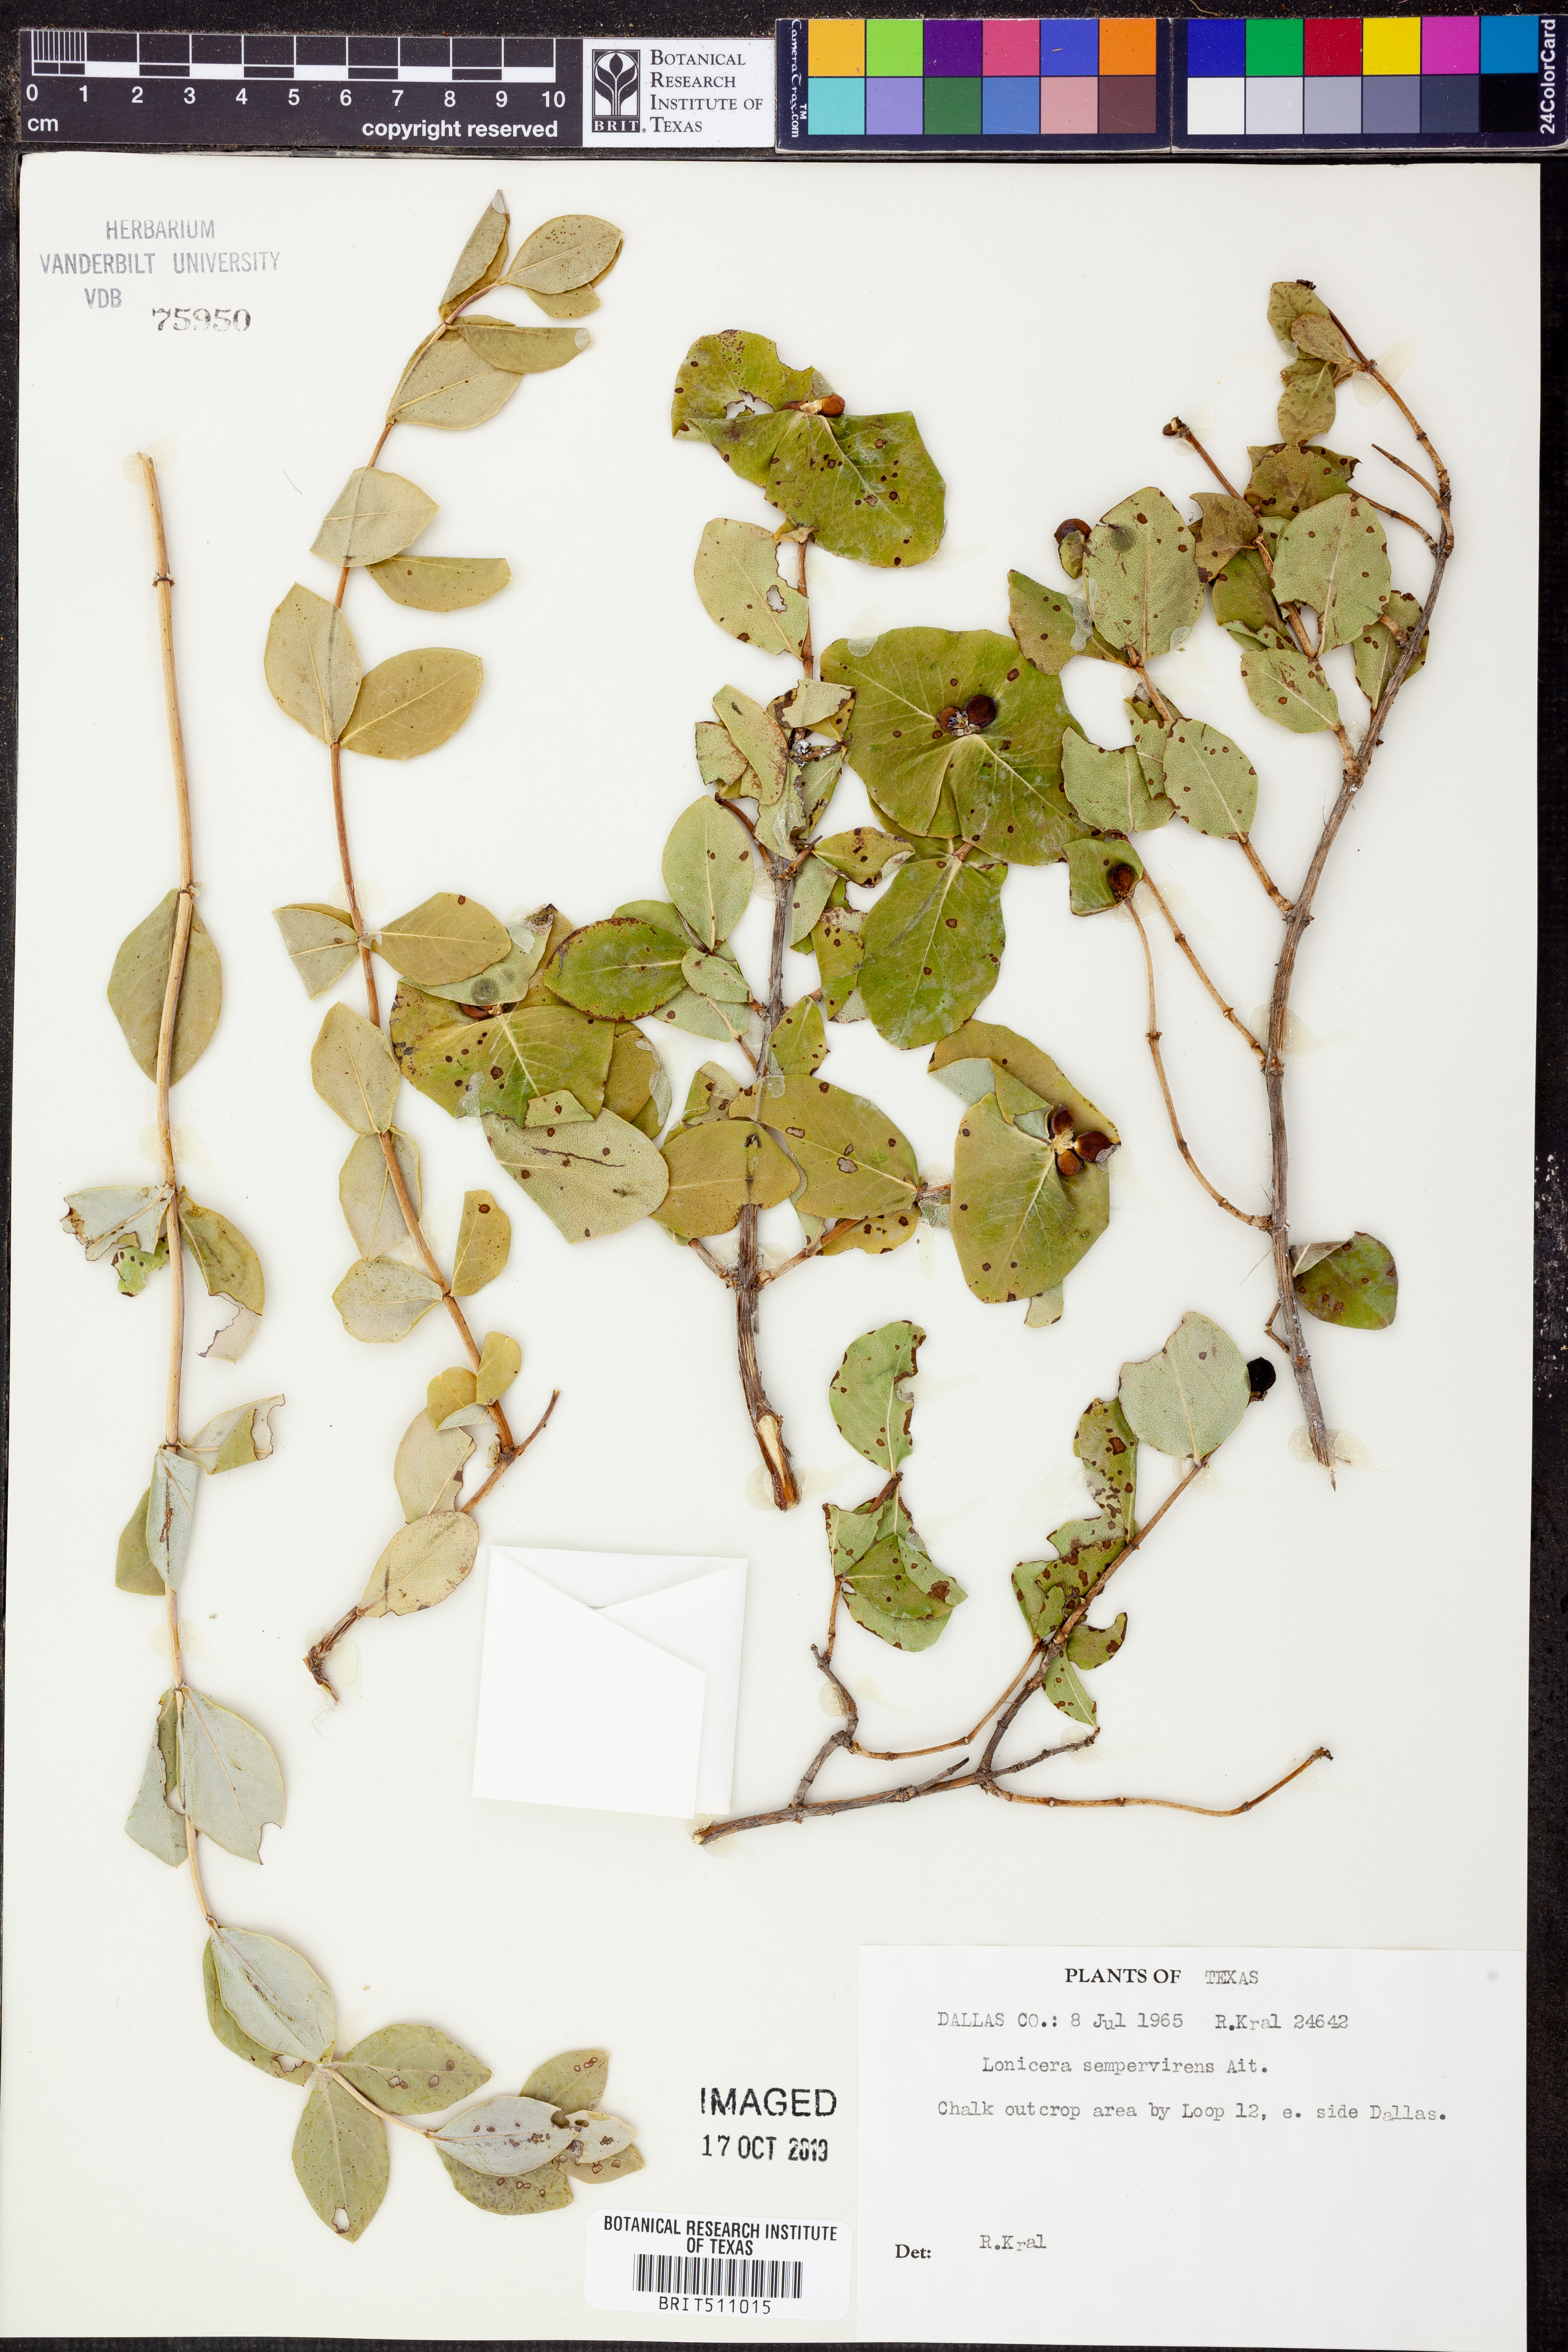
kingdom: Plantae
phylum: Tracheophyta
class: Magnoliopsida
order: Dipsacales
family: Caprifoliaceae
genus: Lonicera
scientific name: Lonicera sempervirens
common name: Coral honeysuckle
